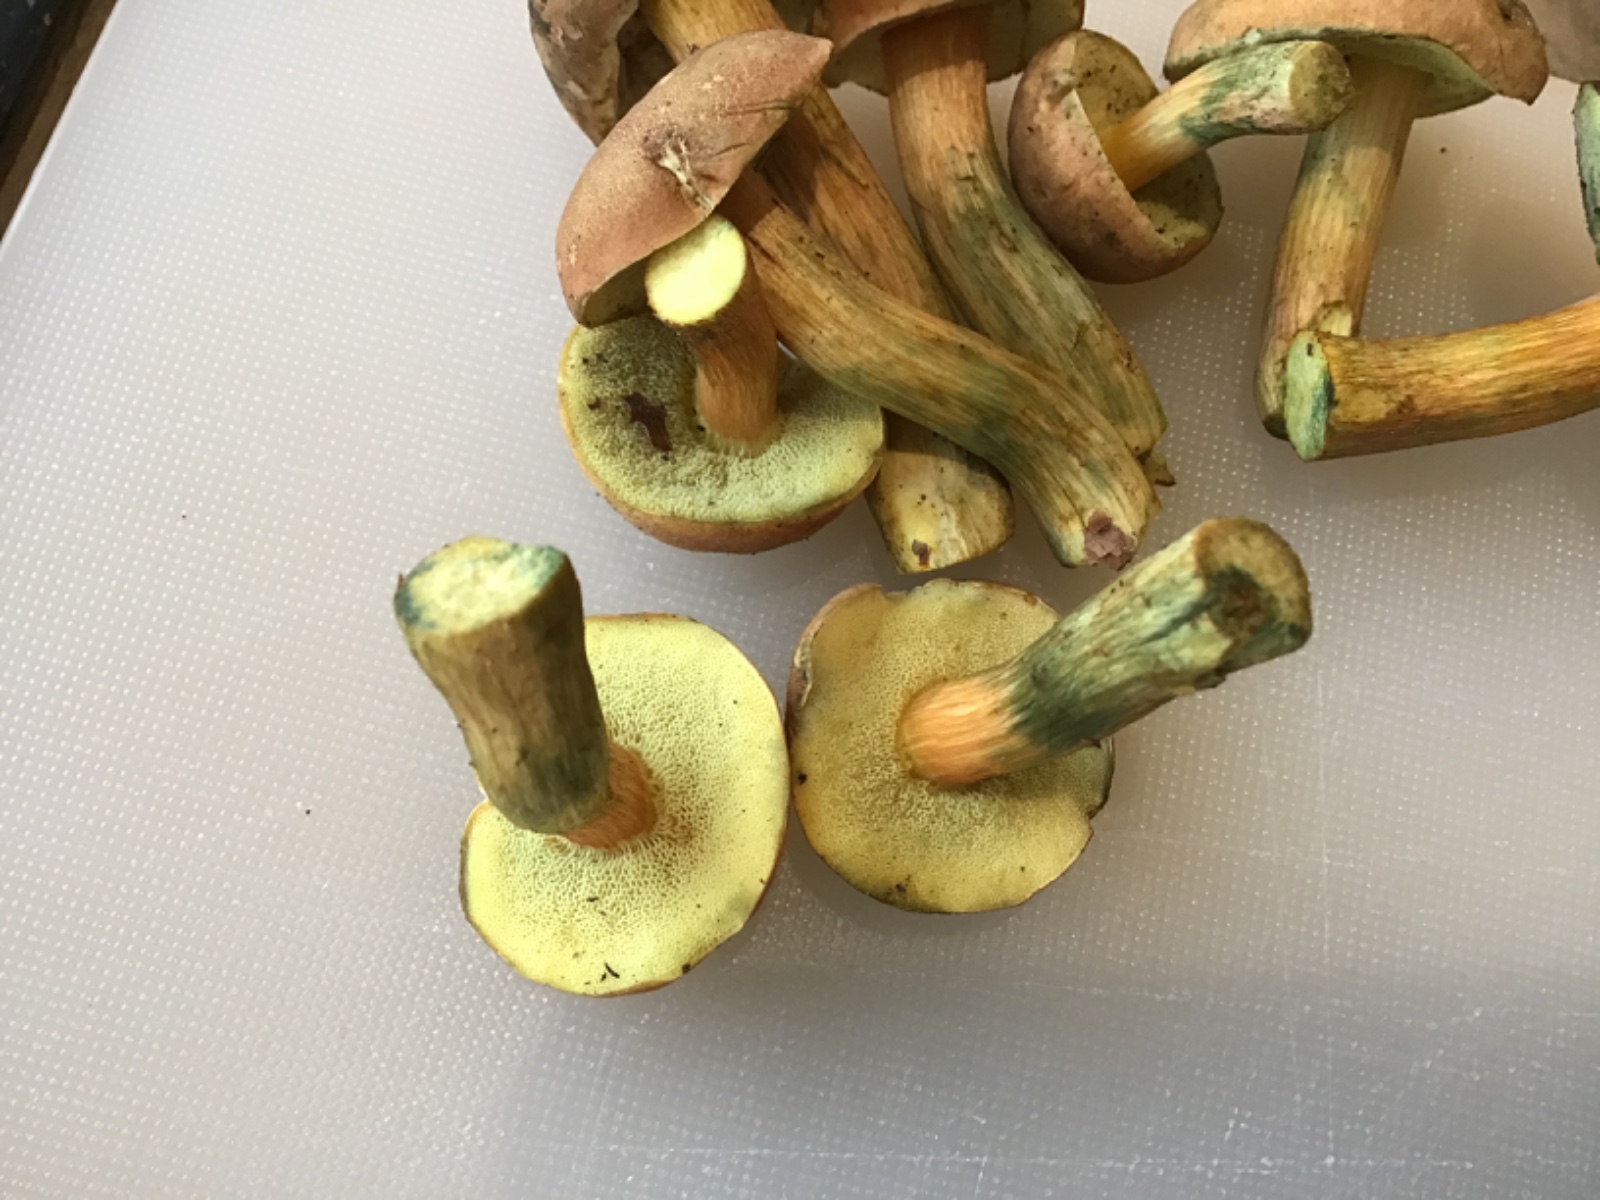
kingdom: Fungi
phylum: Basidiomycota
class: Agaricomycetes
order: Boletales
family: Boletaceae
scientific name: Boletaceae
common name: rørhatfamilien
